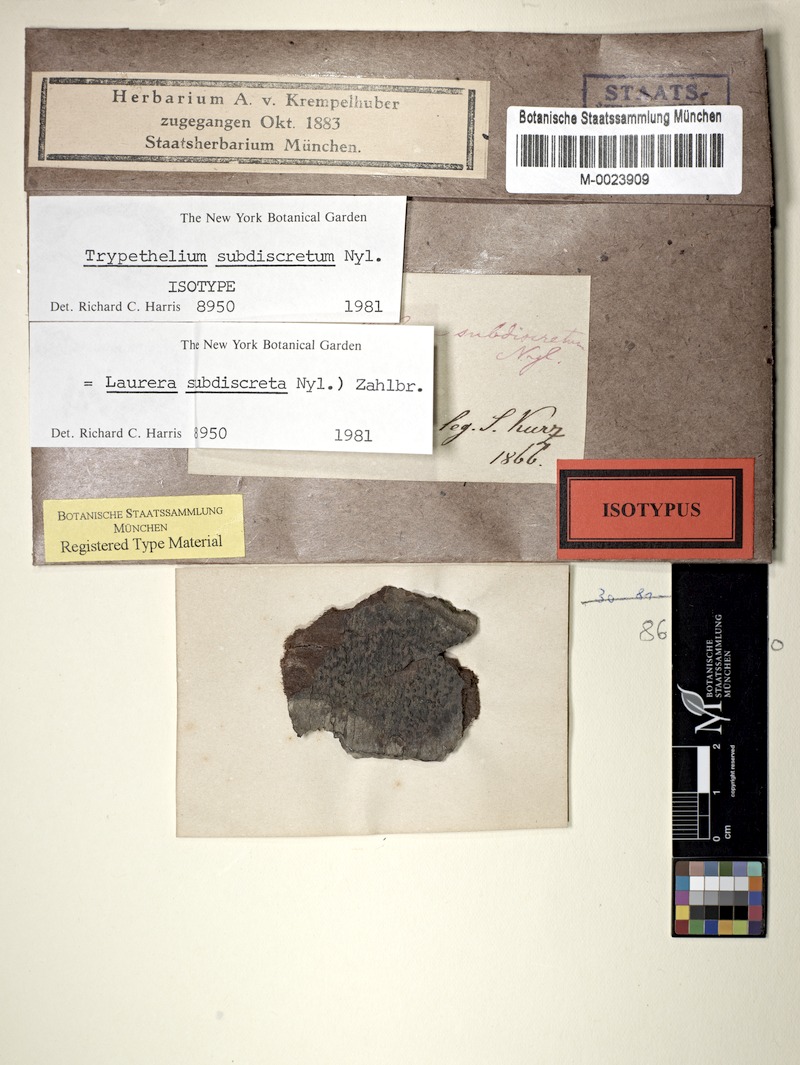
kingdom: Fungi
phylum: Ascomycota
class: Dothideomycetes
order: Trypetheliales
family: Trypetheliaceae
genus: Astrothelium
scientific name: Astrothelium subdiscretum
